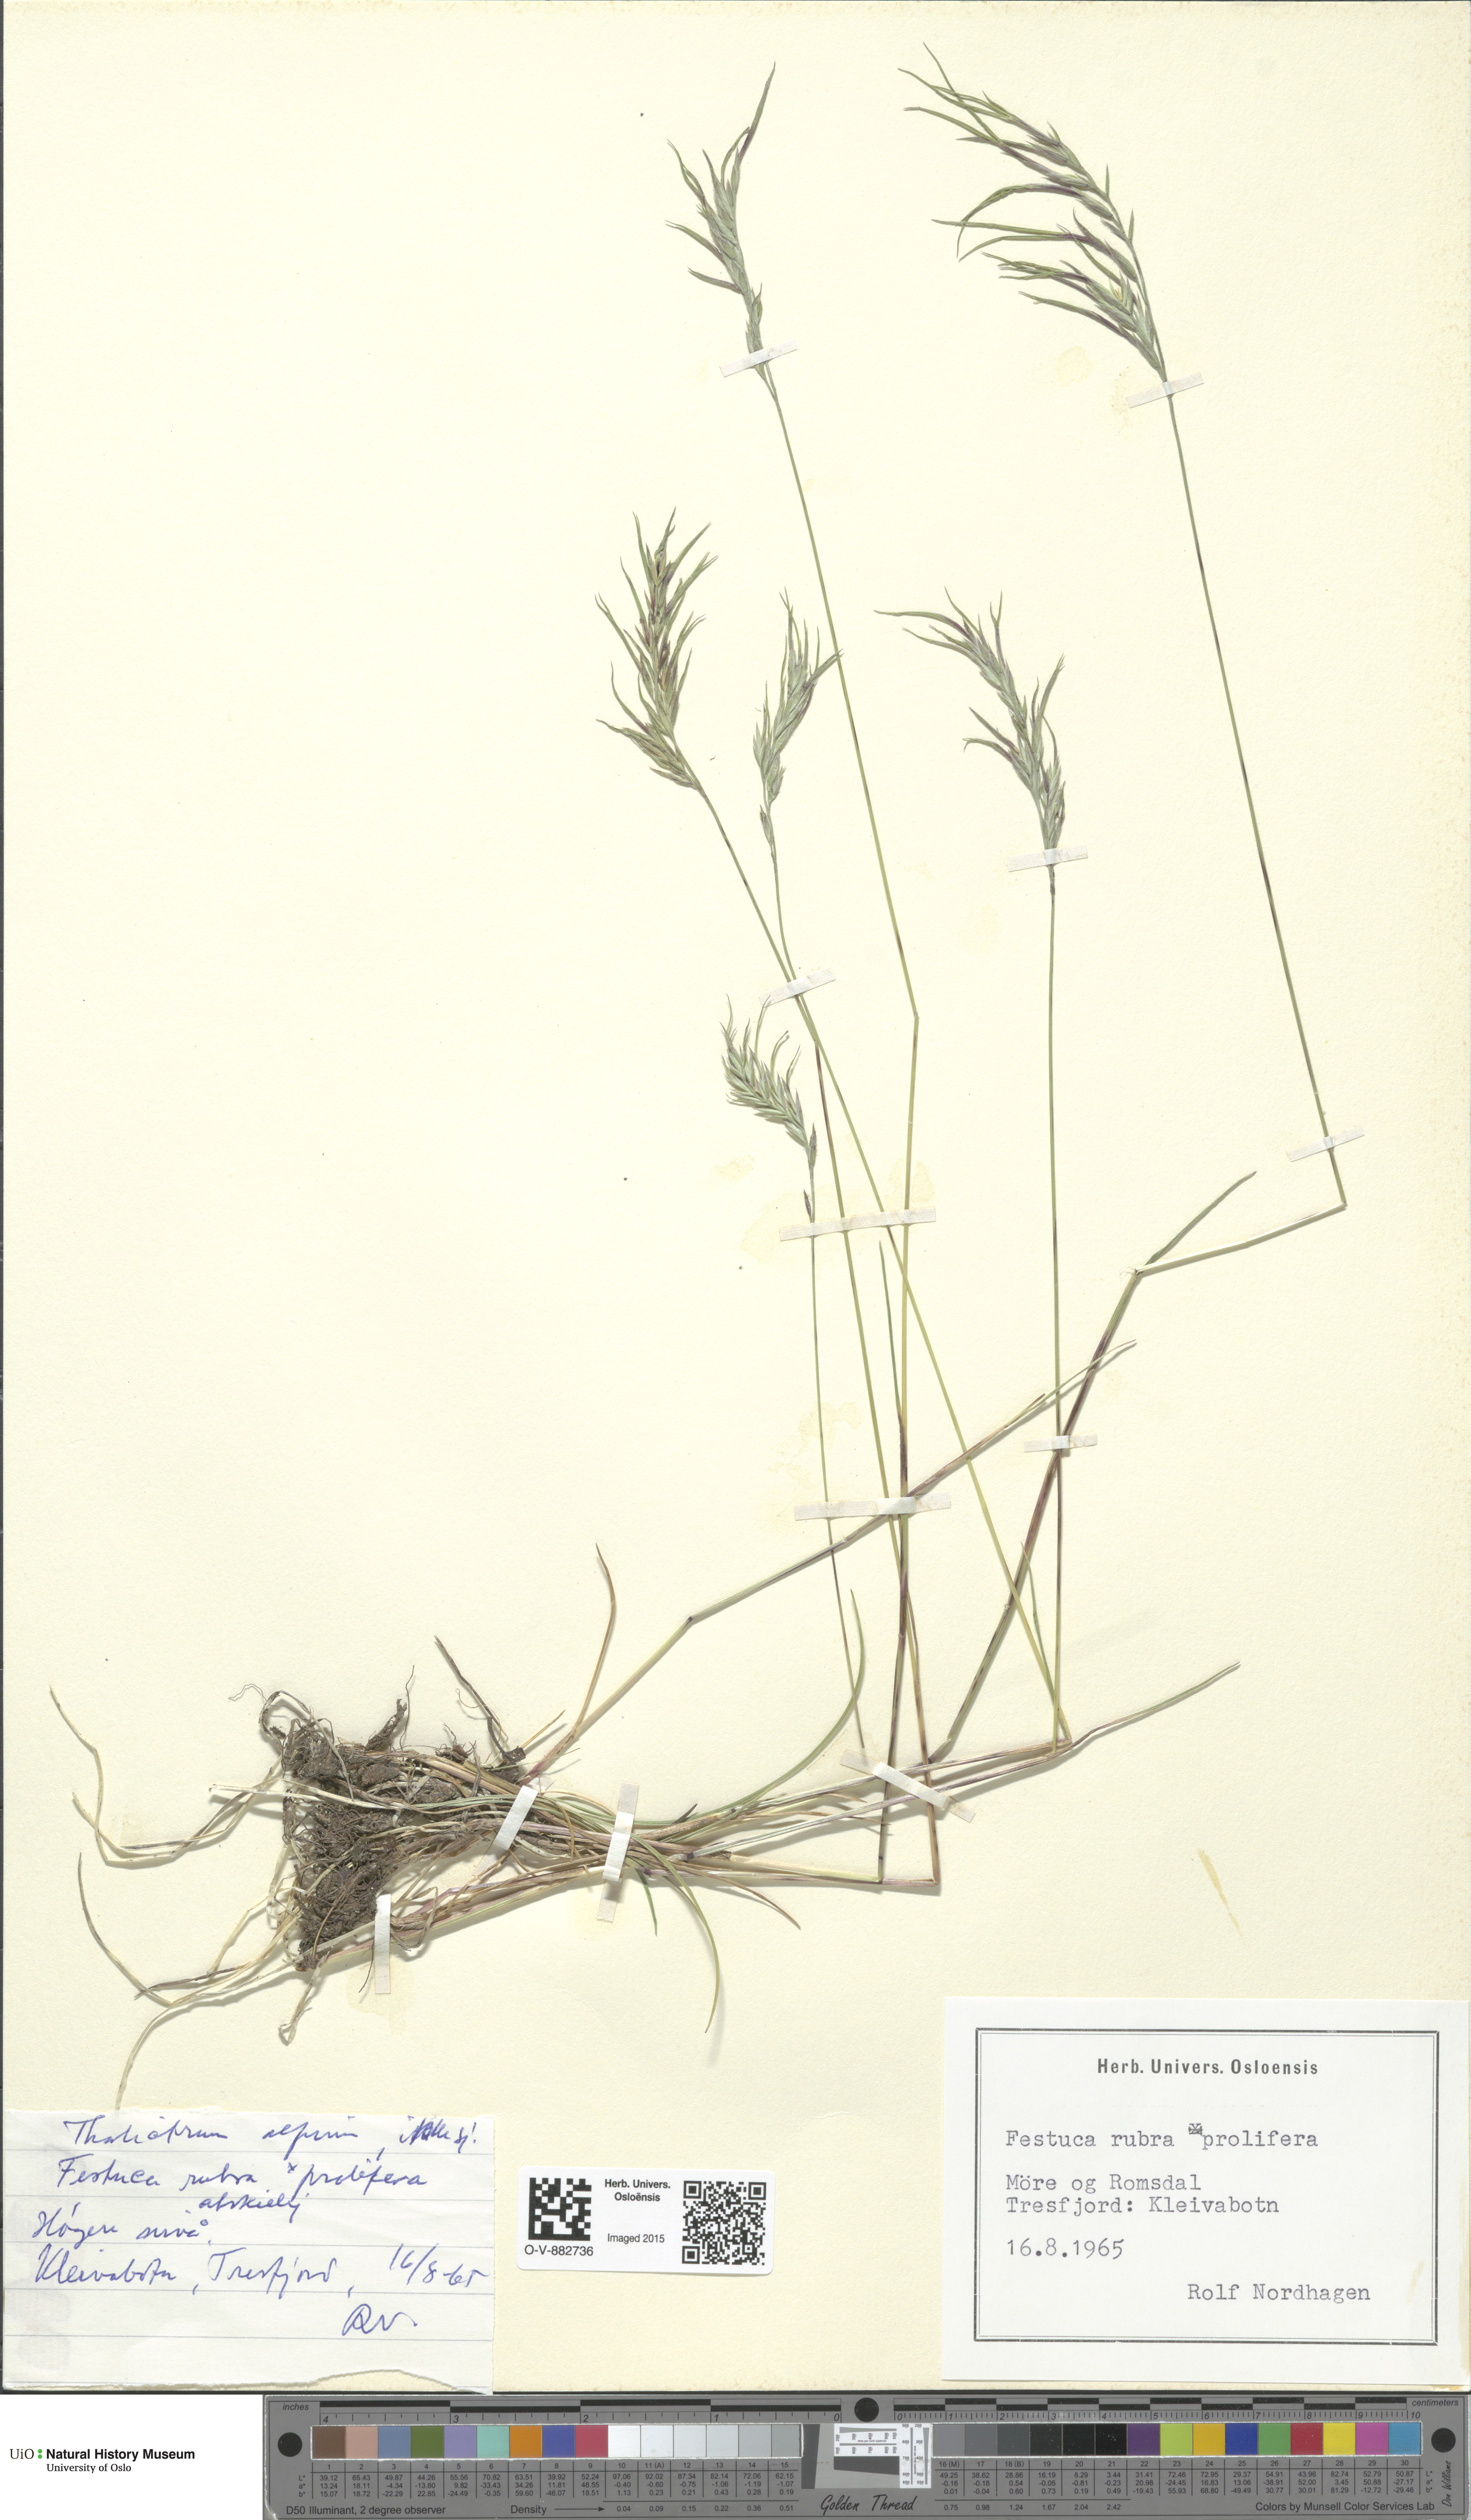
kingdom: Plantae
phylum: Tracheophyta
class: Liliopsida
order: Poales
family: Poaceae
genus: Festuca
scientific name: Festuca prolifera
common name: Proliferous fescue
